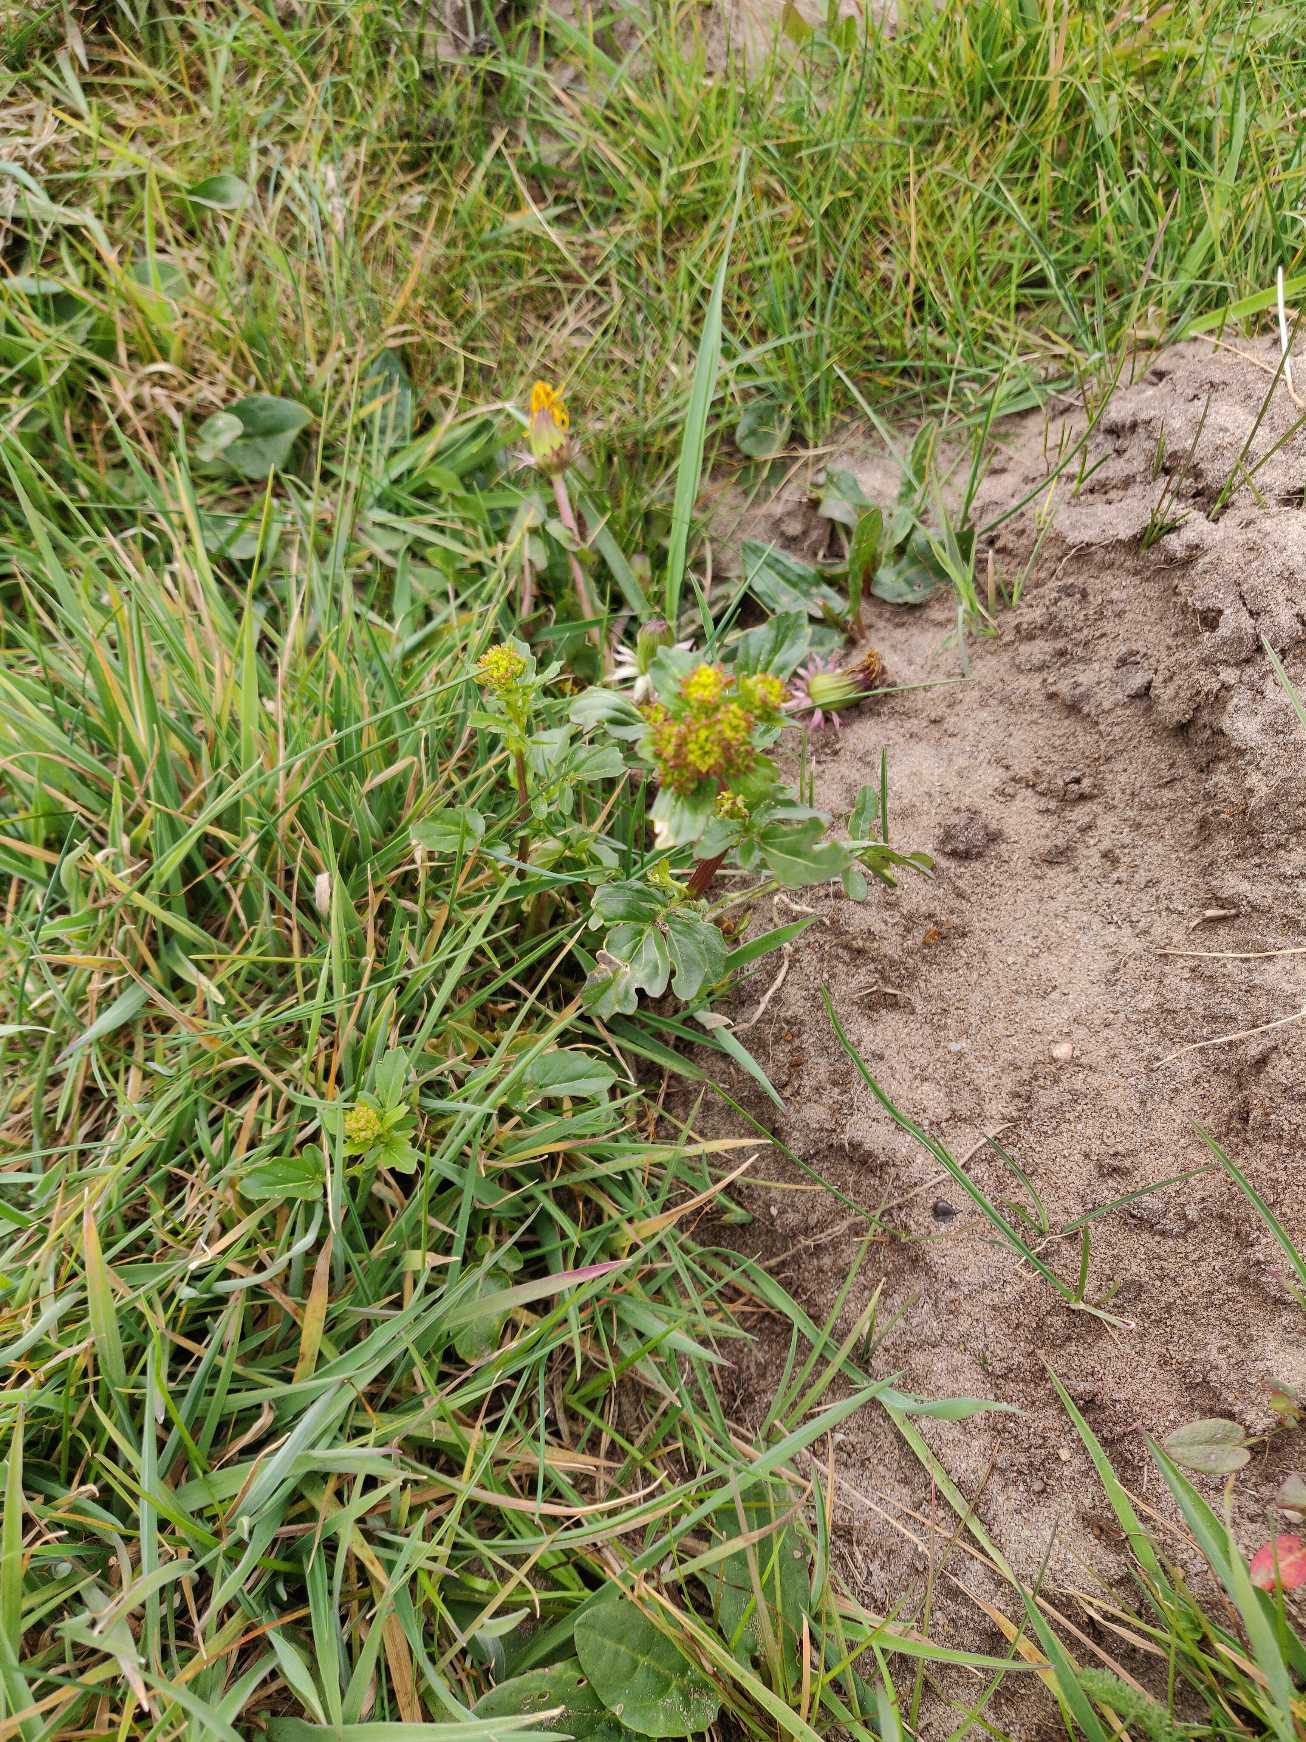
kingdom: Plantae
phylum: Tracheophyta
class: Magnoliopsida
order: Brassicales
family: Brassicaceae
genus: Barbarea
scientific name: Barbarea vulgaris
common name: Almindelig vinterkarse
